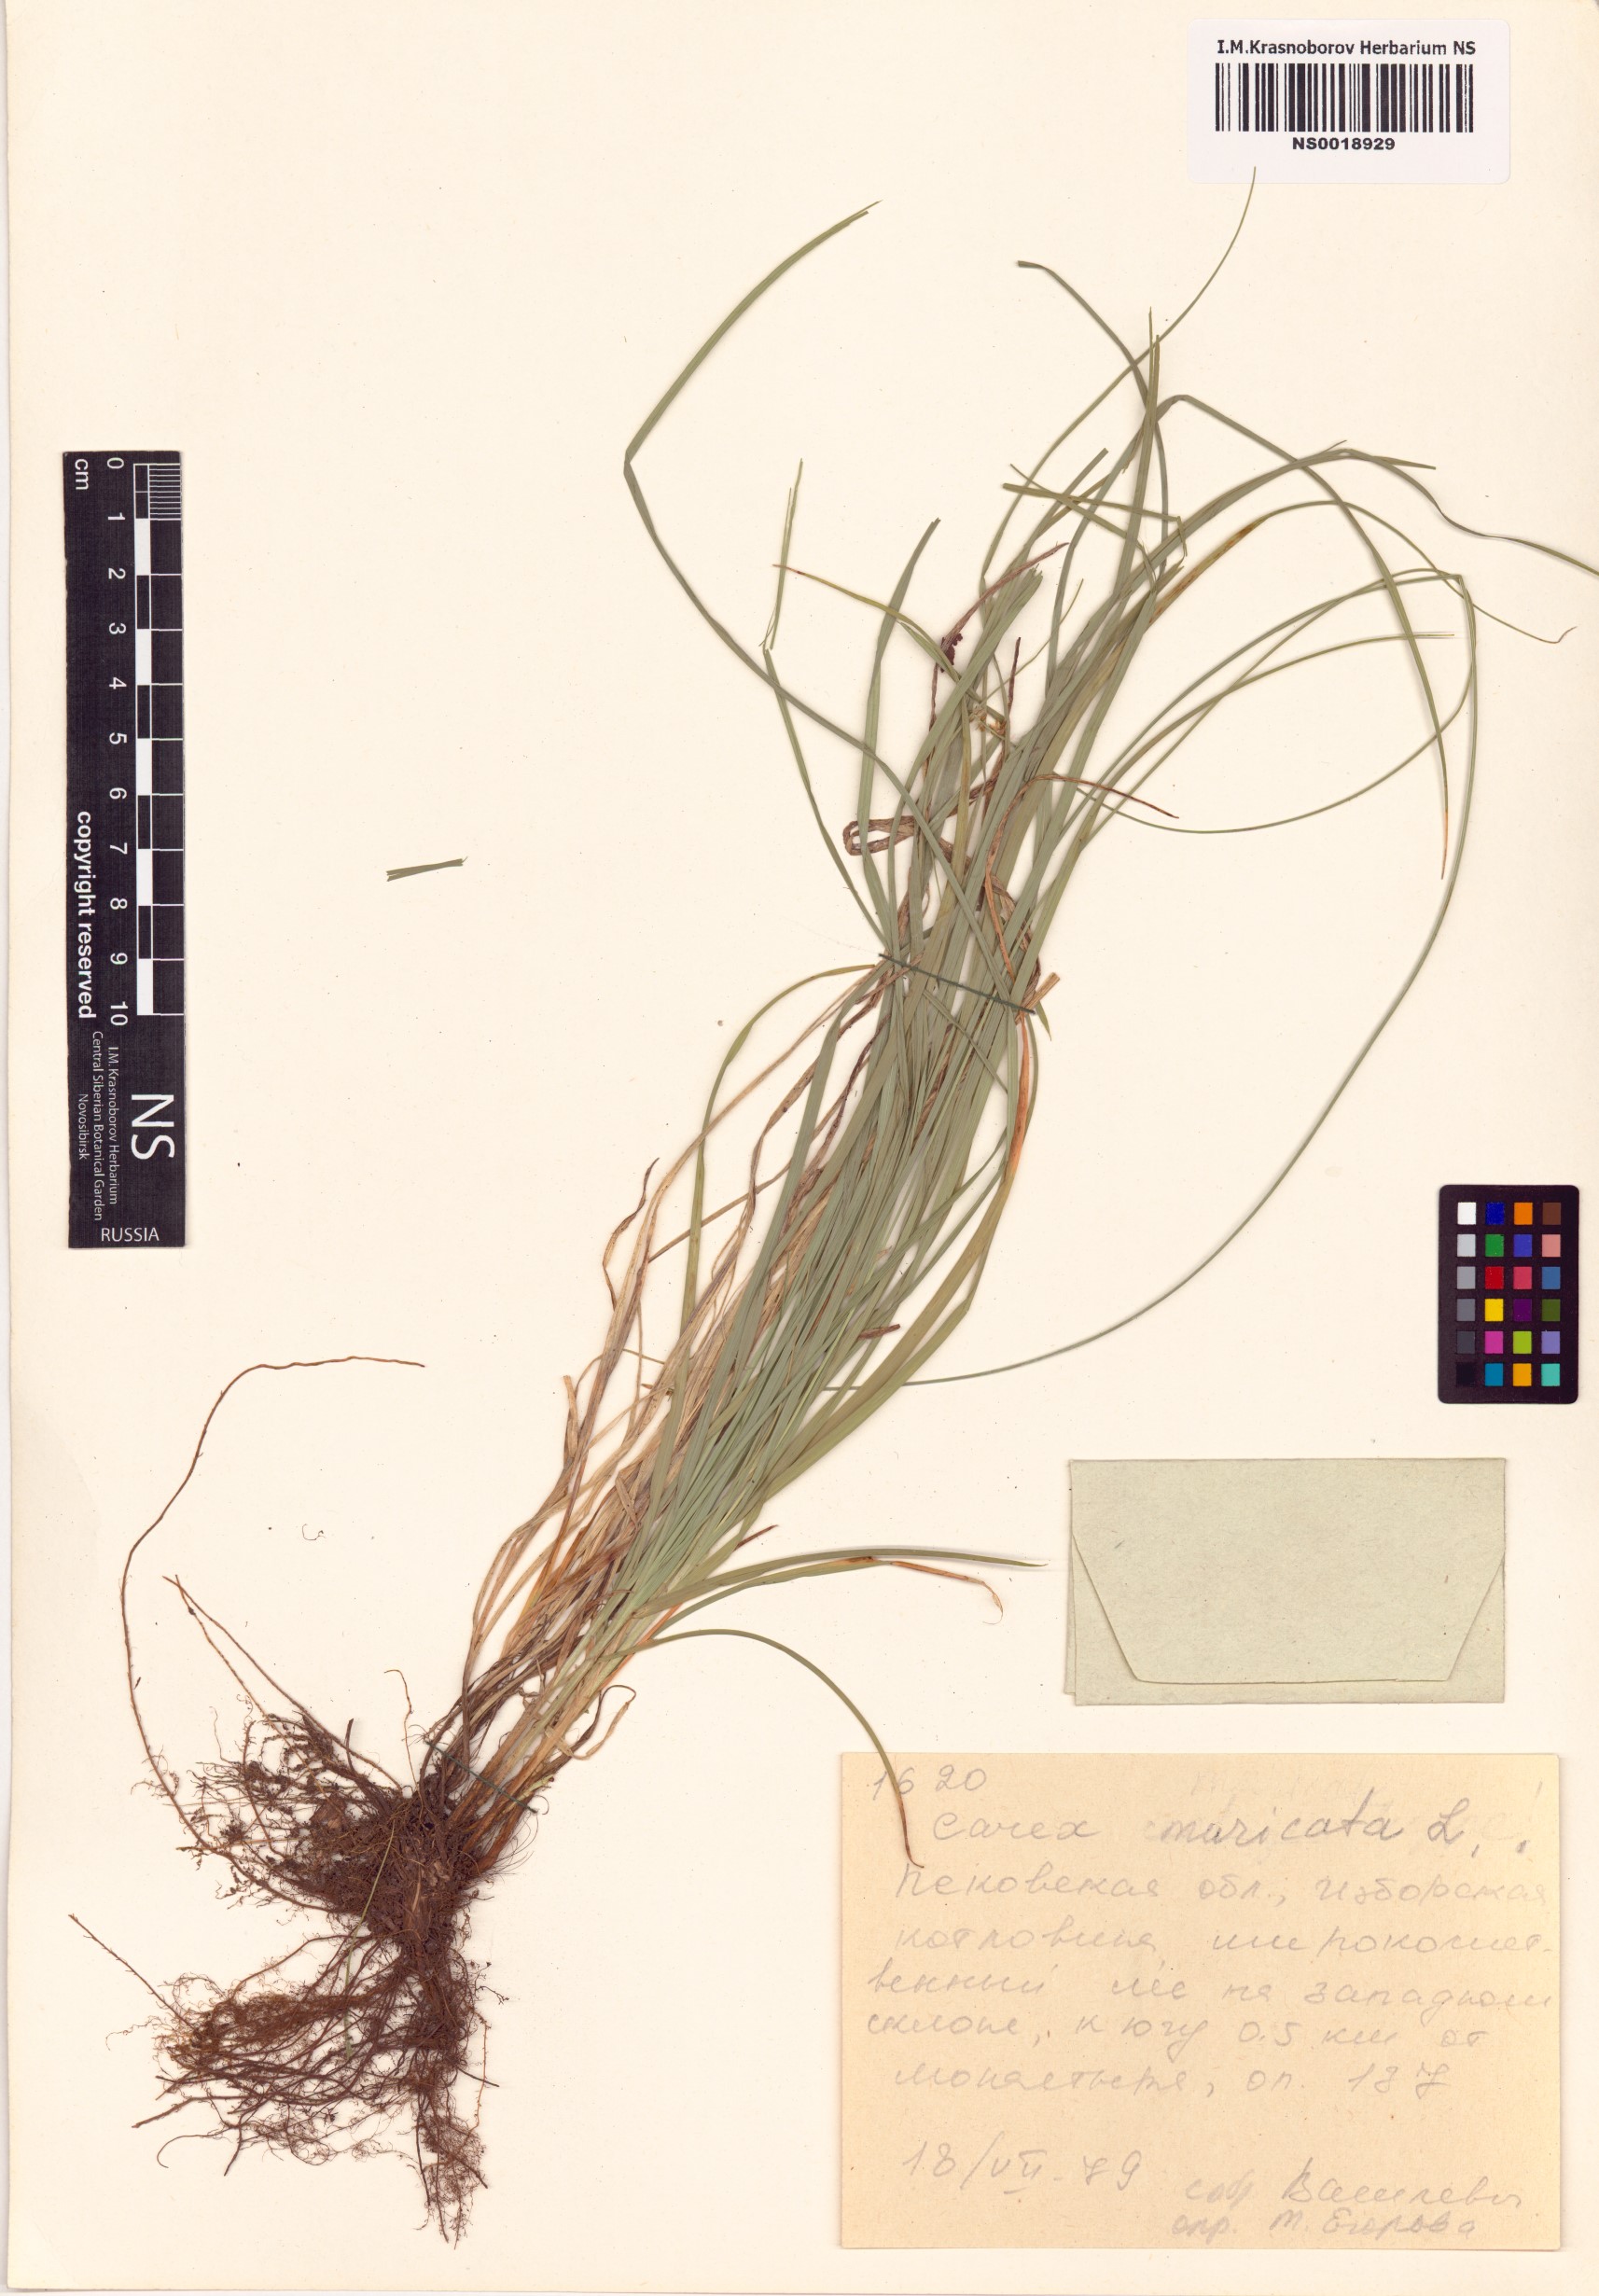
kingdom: Plantae
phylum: Tracheophyta
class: Liliopsida
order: Poales
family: Cyperaceae
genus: Carex
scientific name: Carex muricata
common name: Rough sedge
